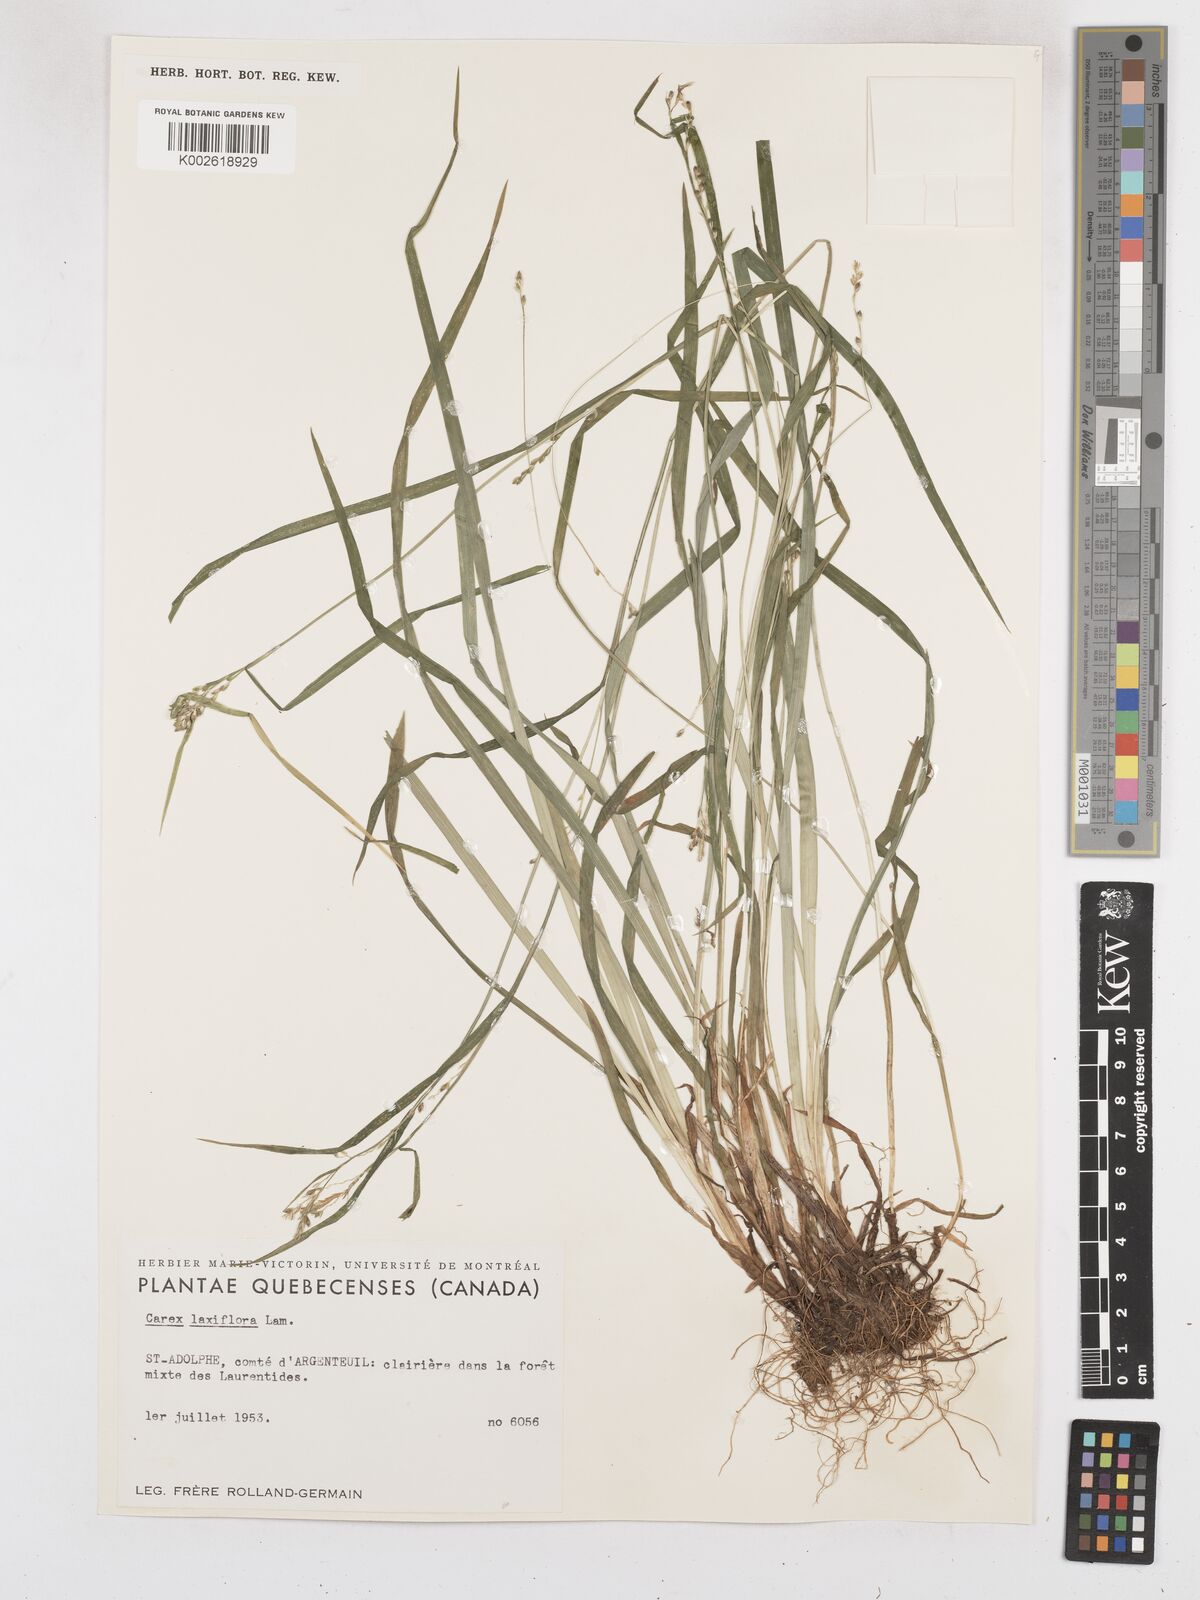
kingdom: Plantae
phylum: Tracheophyta
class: Liliopsida
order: Poales
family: Cyperaceae
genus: Carex
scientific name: Carex laxiflora
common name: Beech wood sedge
